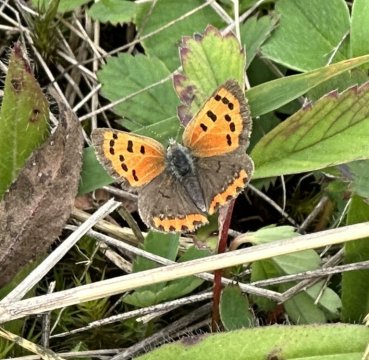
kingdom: Animalia
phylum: Arthropoda
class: Insecta
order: Lepidoptera
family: Lycaenidae
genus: Lycaena
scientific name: Lycaena phlaeas
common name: American Copper
